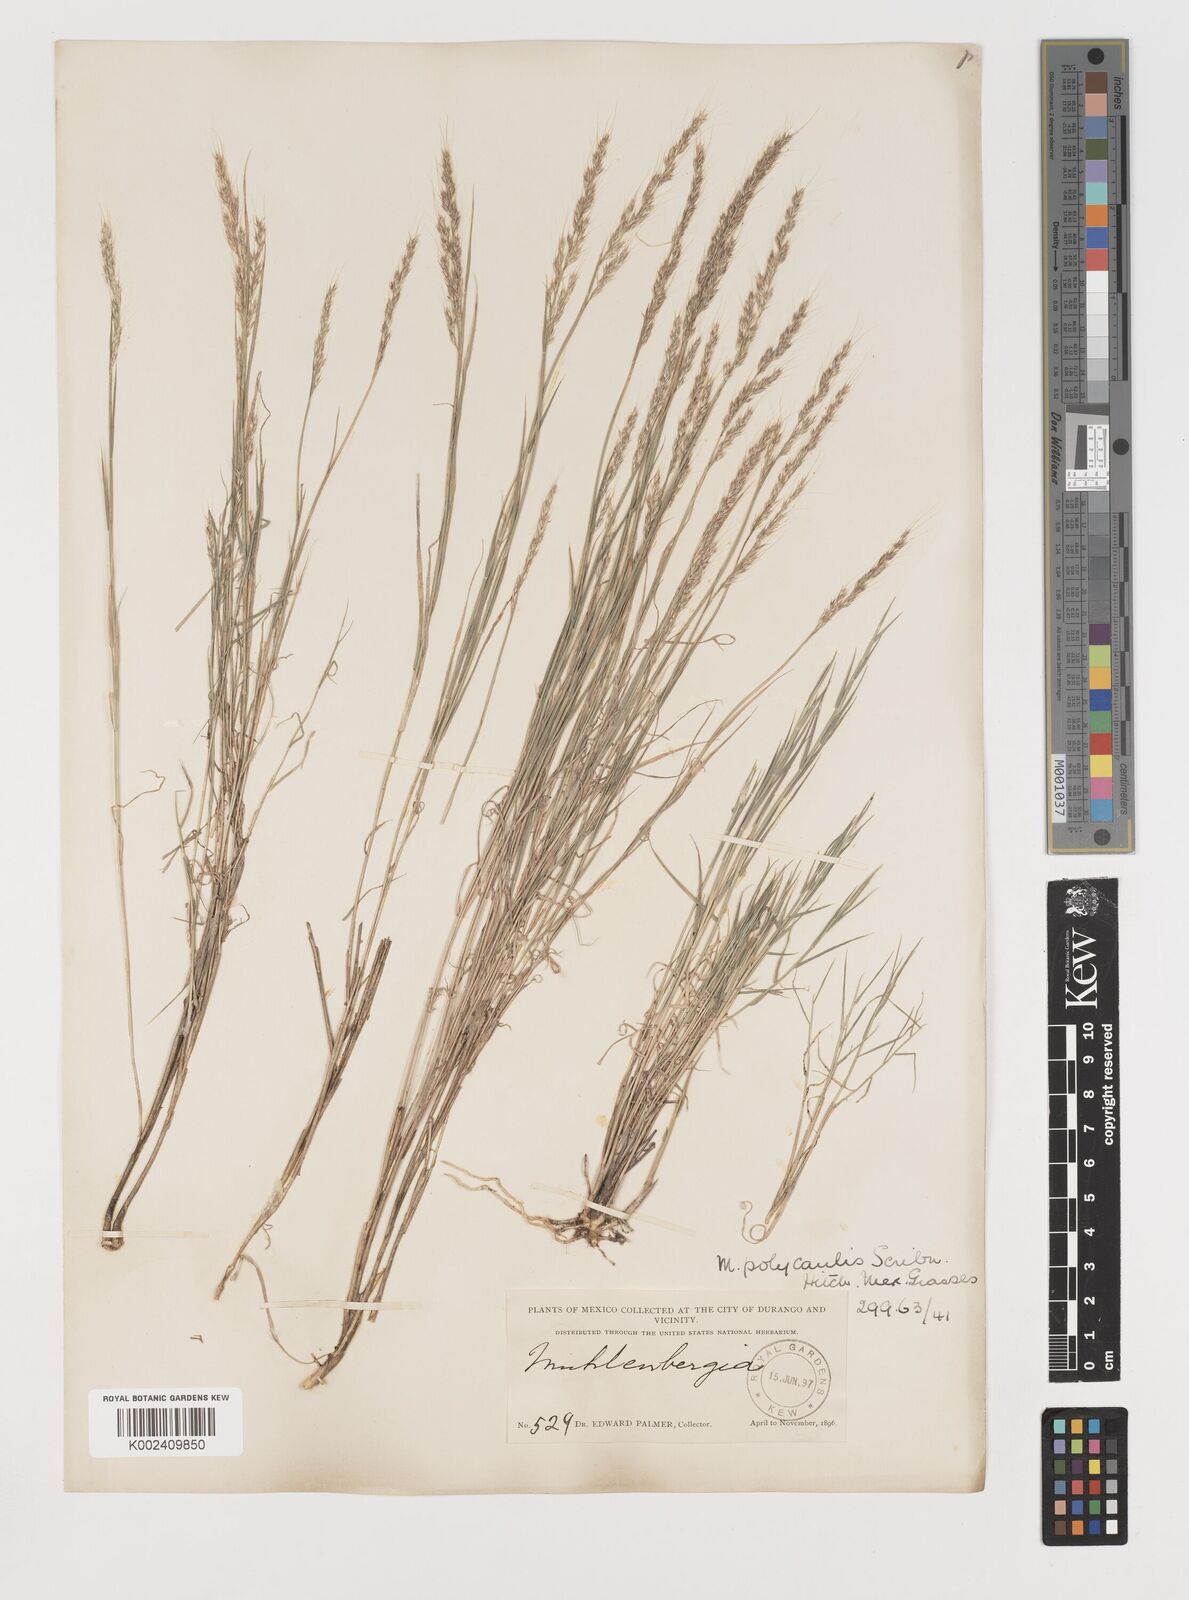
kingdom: Plantae
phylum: Tracheophyta
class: Liliopsida
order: Poales
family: Poaceae
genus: Muhlenbergia
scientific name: Muhlenbergia polycaulis
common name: Cliff muhly
